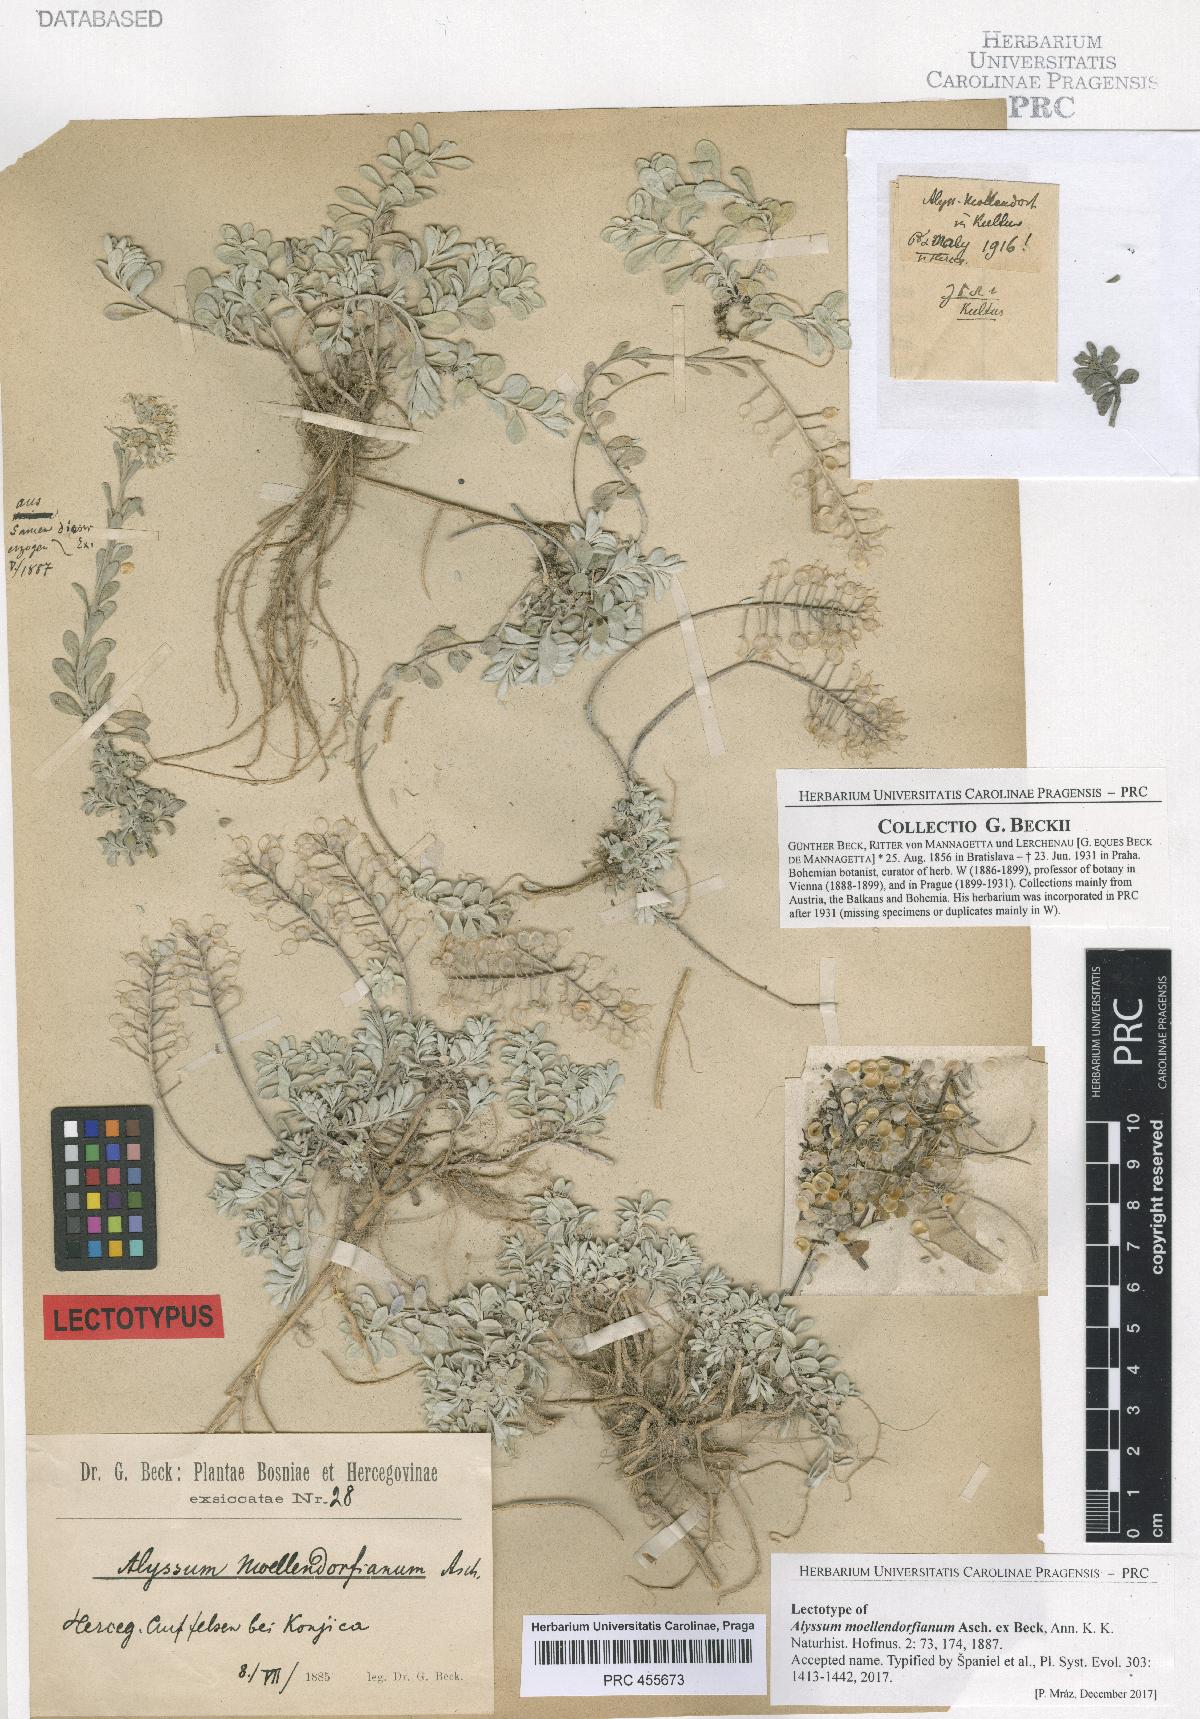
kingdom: Plantae
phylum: Tracheophyta
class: Magnoliopsida
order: Brassicales
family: Brassicaceae
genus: Alyssum
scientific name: Alyssum moellendorfianum
